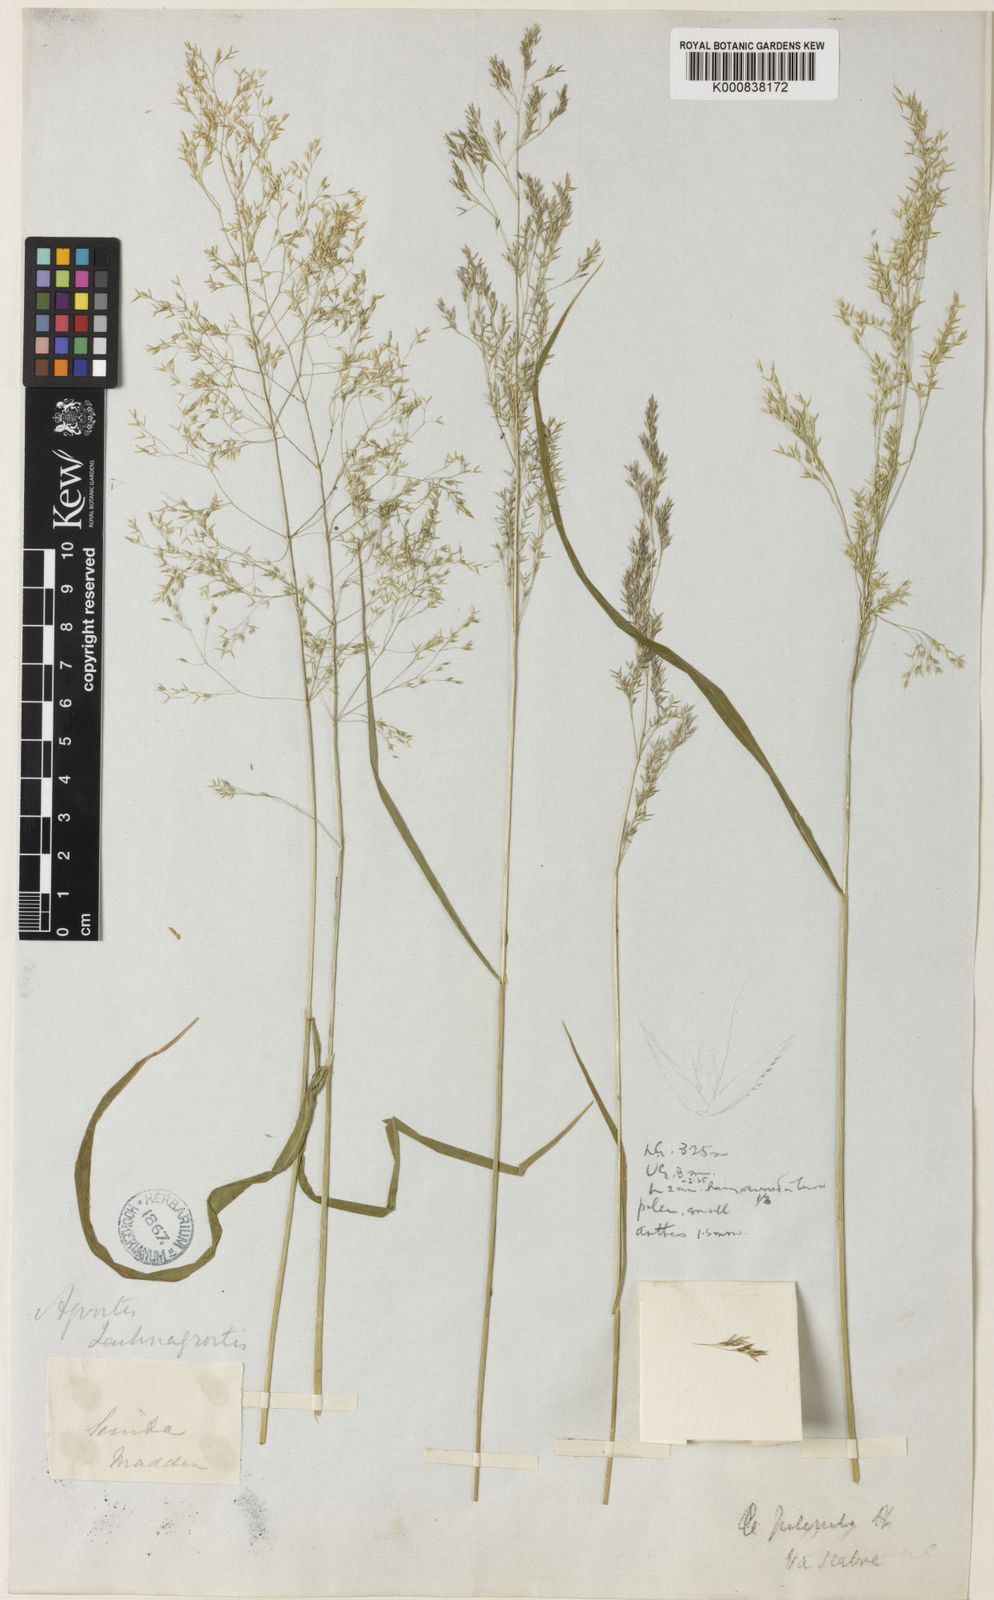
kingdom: Plantae
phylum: Tracheophyta
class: Liliopsida
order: Poales
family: Poaceae
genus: Digitaria
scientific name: Digitaria stricta
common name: Crabgrass
